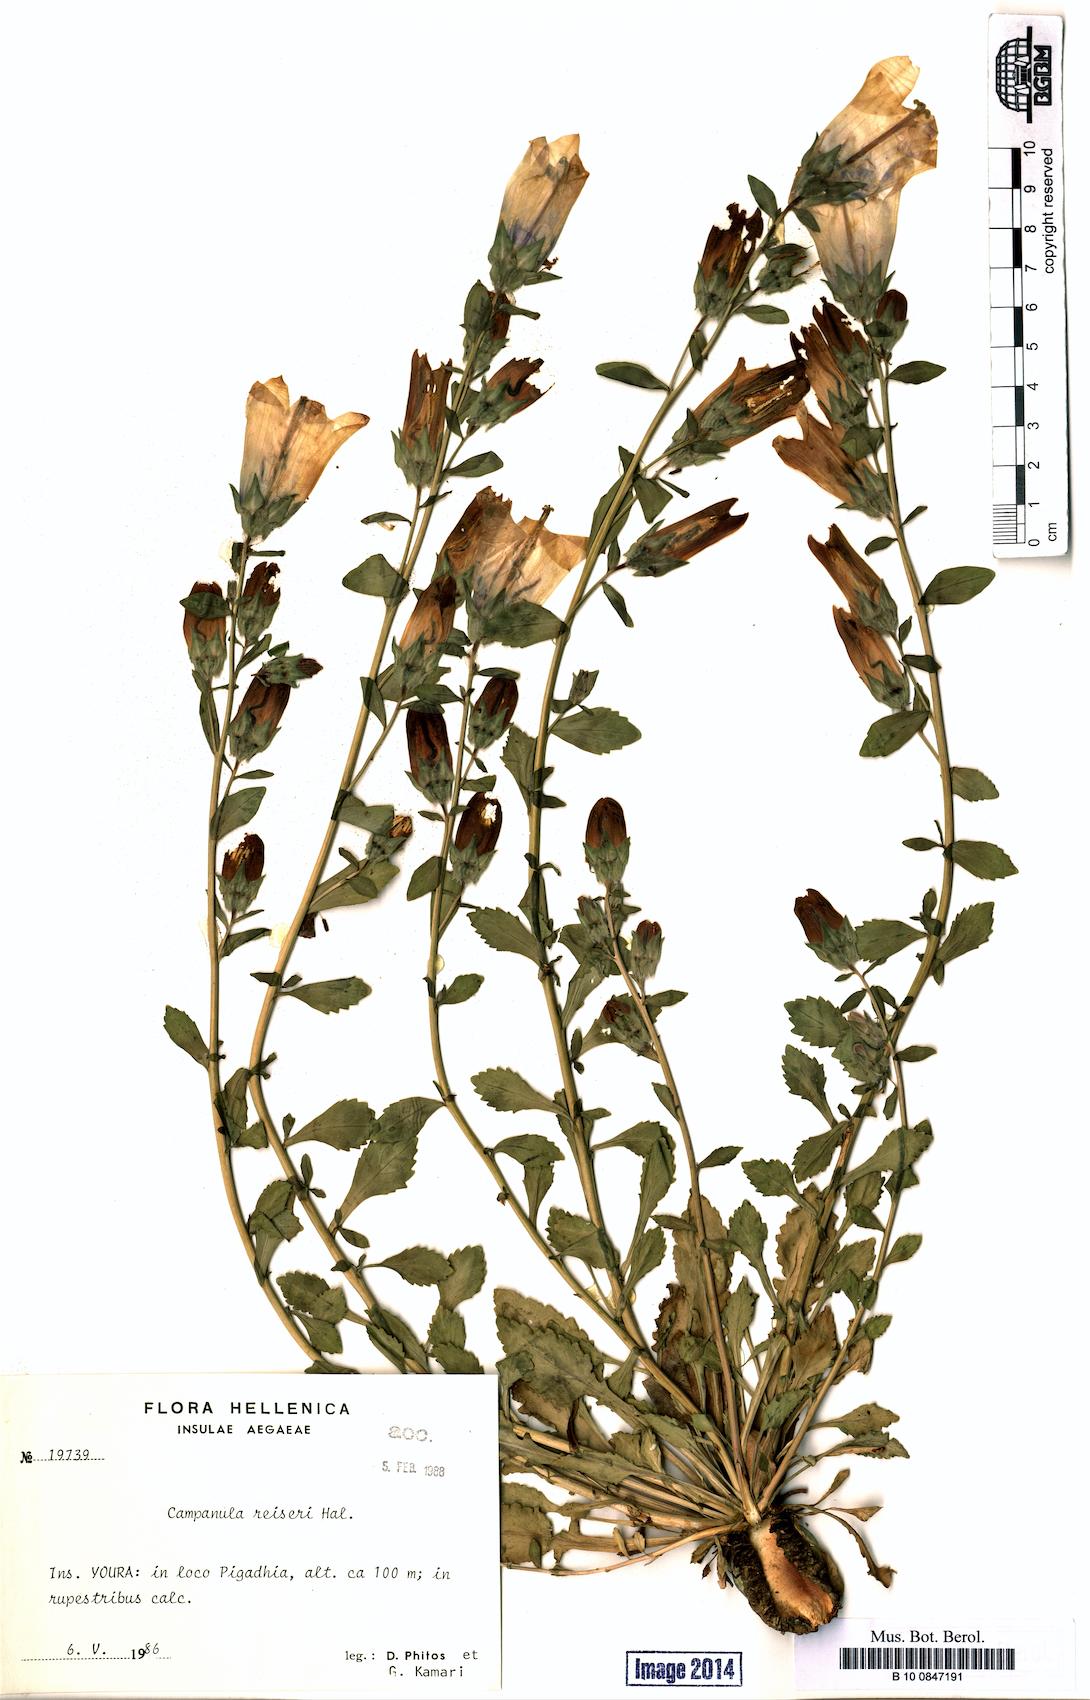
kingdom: Plantae
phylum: Tracheophyta
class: Magnoliopsida
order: Asterales
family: Campanulaceae
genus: Campanula
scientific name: Campanula reiseri
